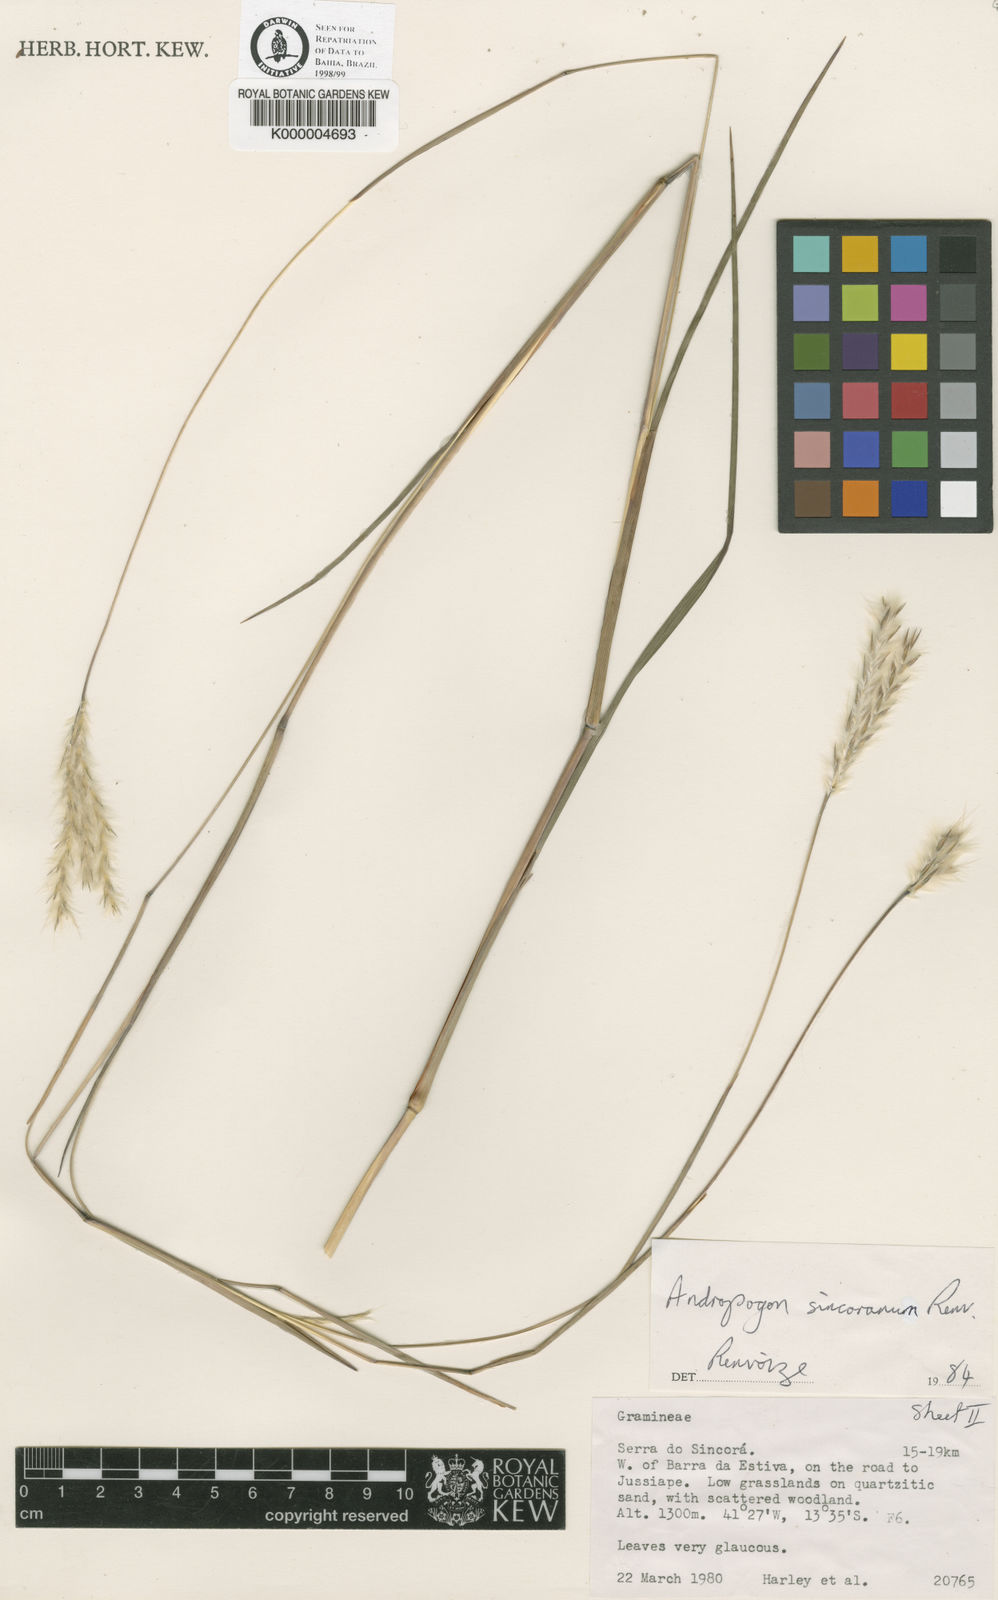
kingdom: Plantae
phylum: Tracheophyta
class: Liliopsida
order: Poales
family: Poaceae
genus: Andropogon
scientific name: Andropogon ingratus
